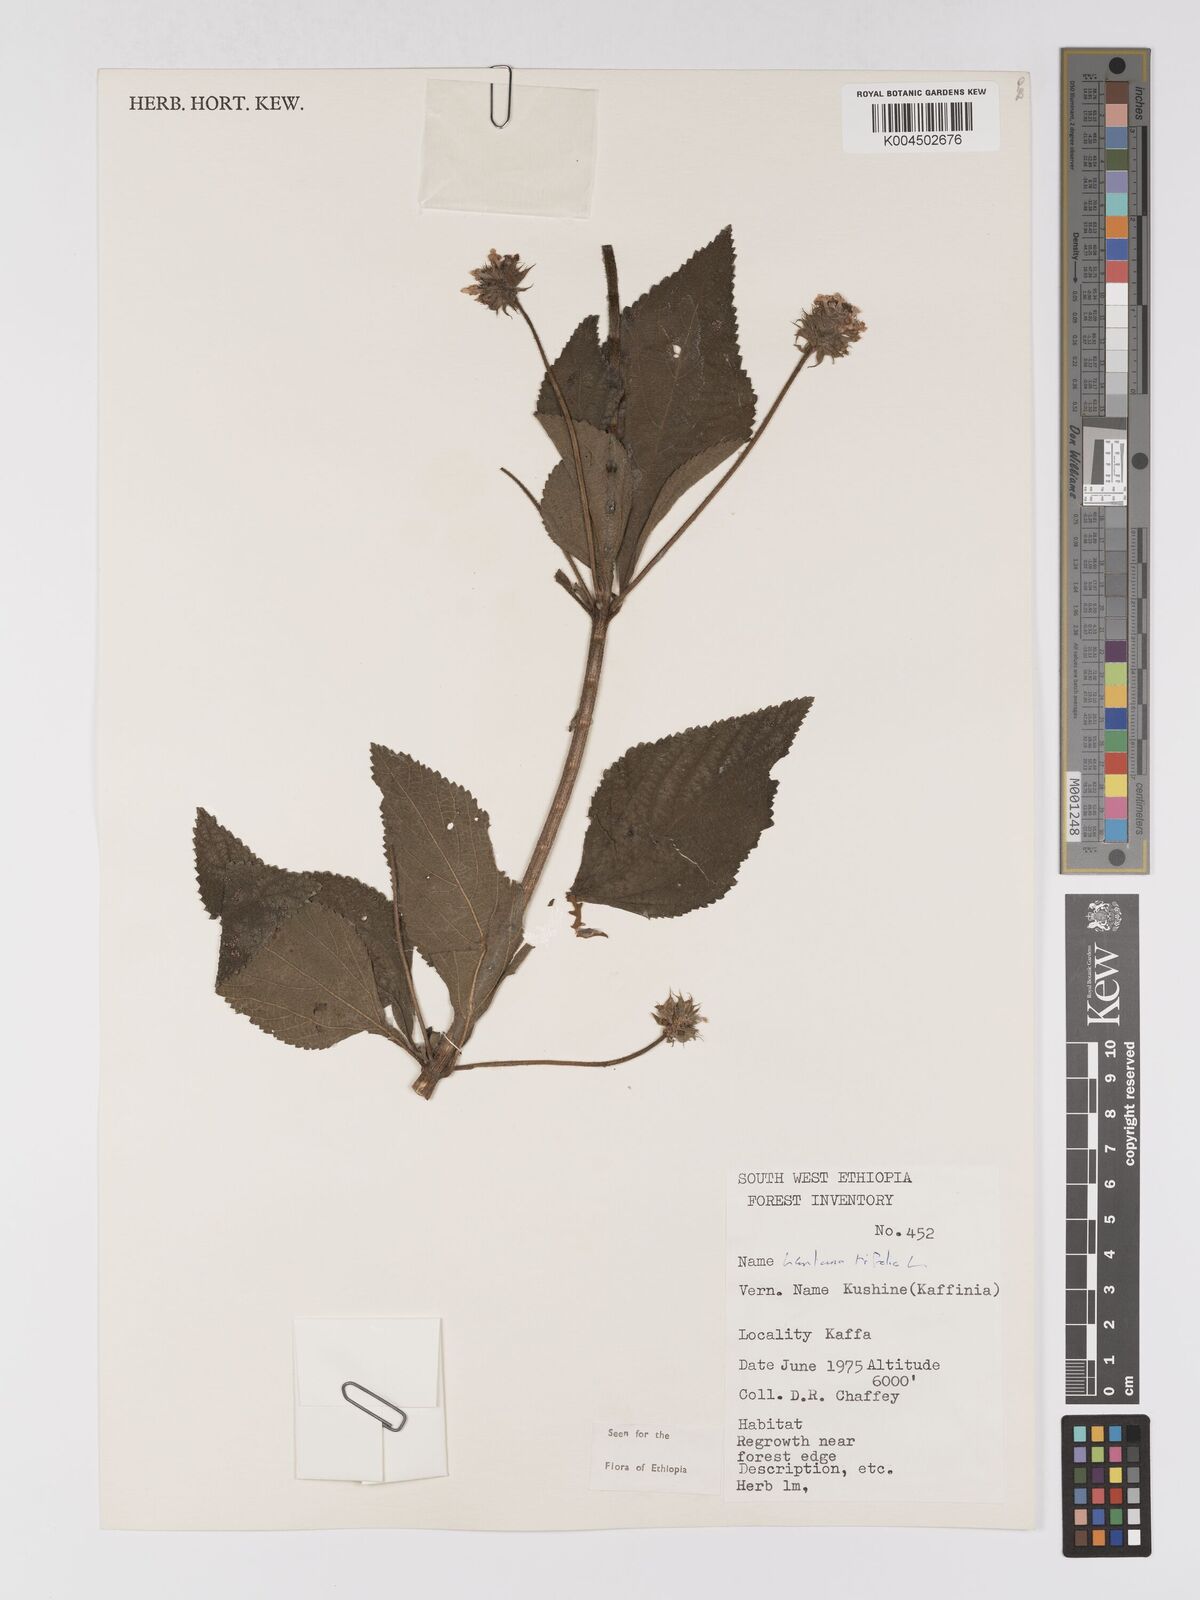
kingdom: Plantae
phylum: Tracheophyta
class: Magnoliopsida
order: Lamiales
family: Verbenaceae
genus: Lantana
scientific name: Lantana trifolia
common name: Sweet-sage
